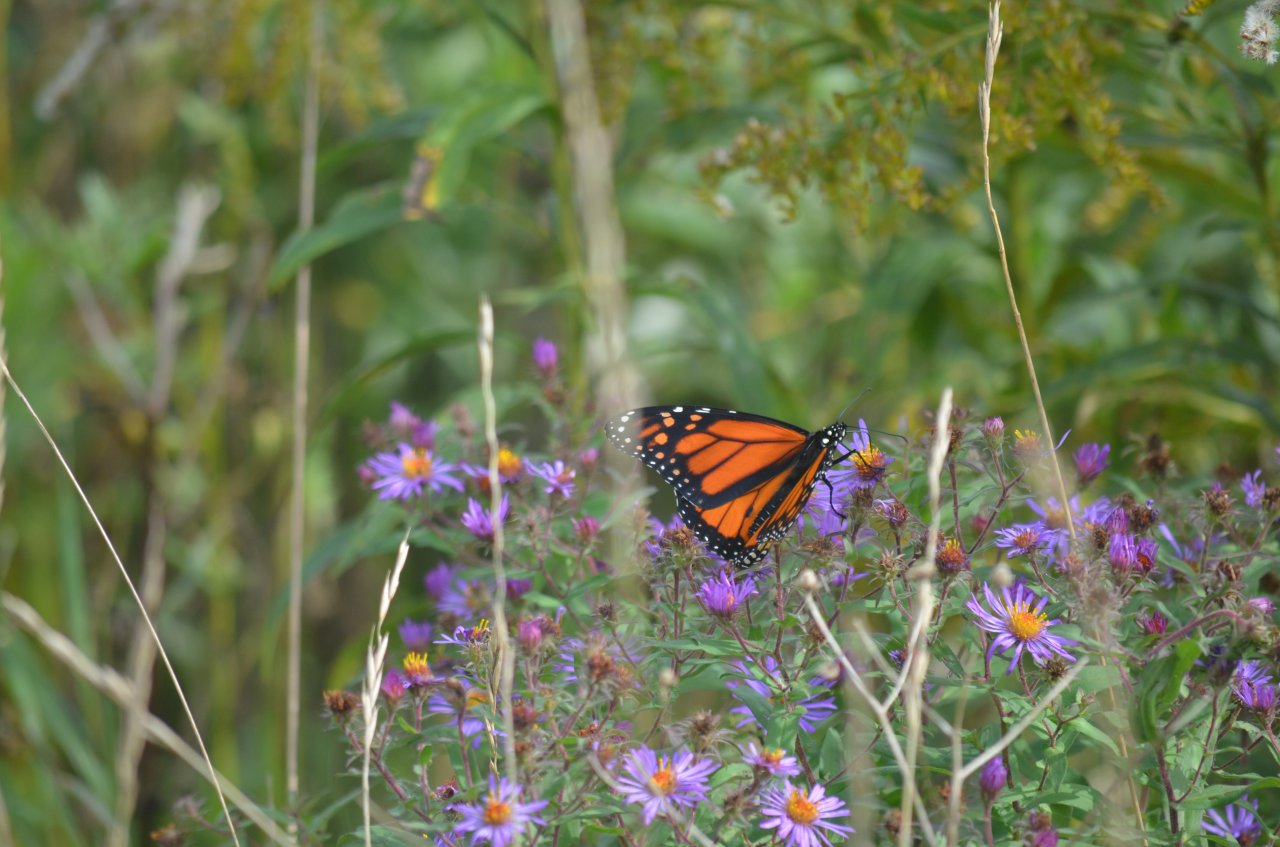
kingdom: Animalia
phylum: Arthropoda
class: Insecta
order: Lepidoptera
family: Nymphalidae
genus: Danaus
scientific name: Danaus plexippus
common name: Monarch
